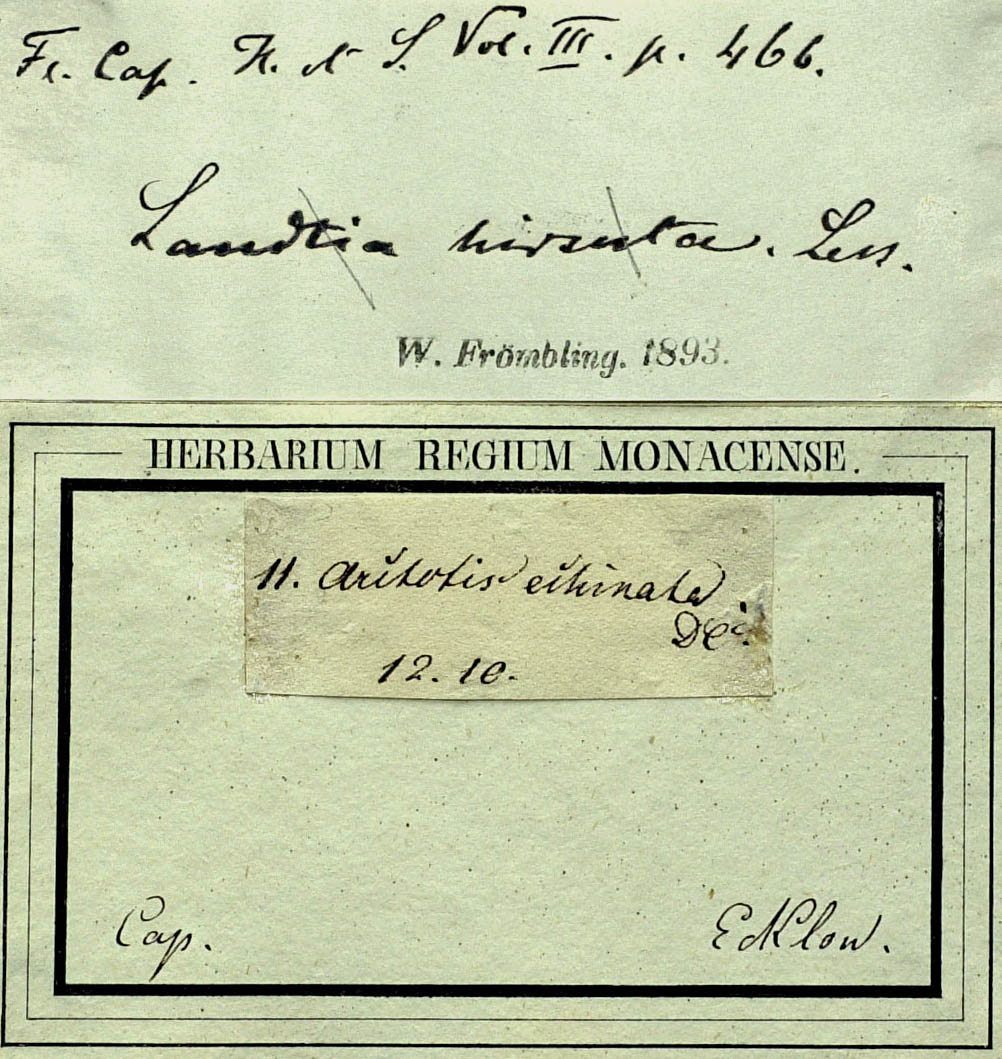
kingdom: Plantae
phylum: Tracheophyta
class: Magnoliopsida
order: Asterales
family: Asteraceae
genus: Haplocarpha
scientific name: Haplocarpha nervosa
